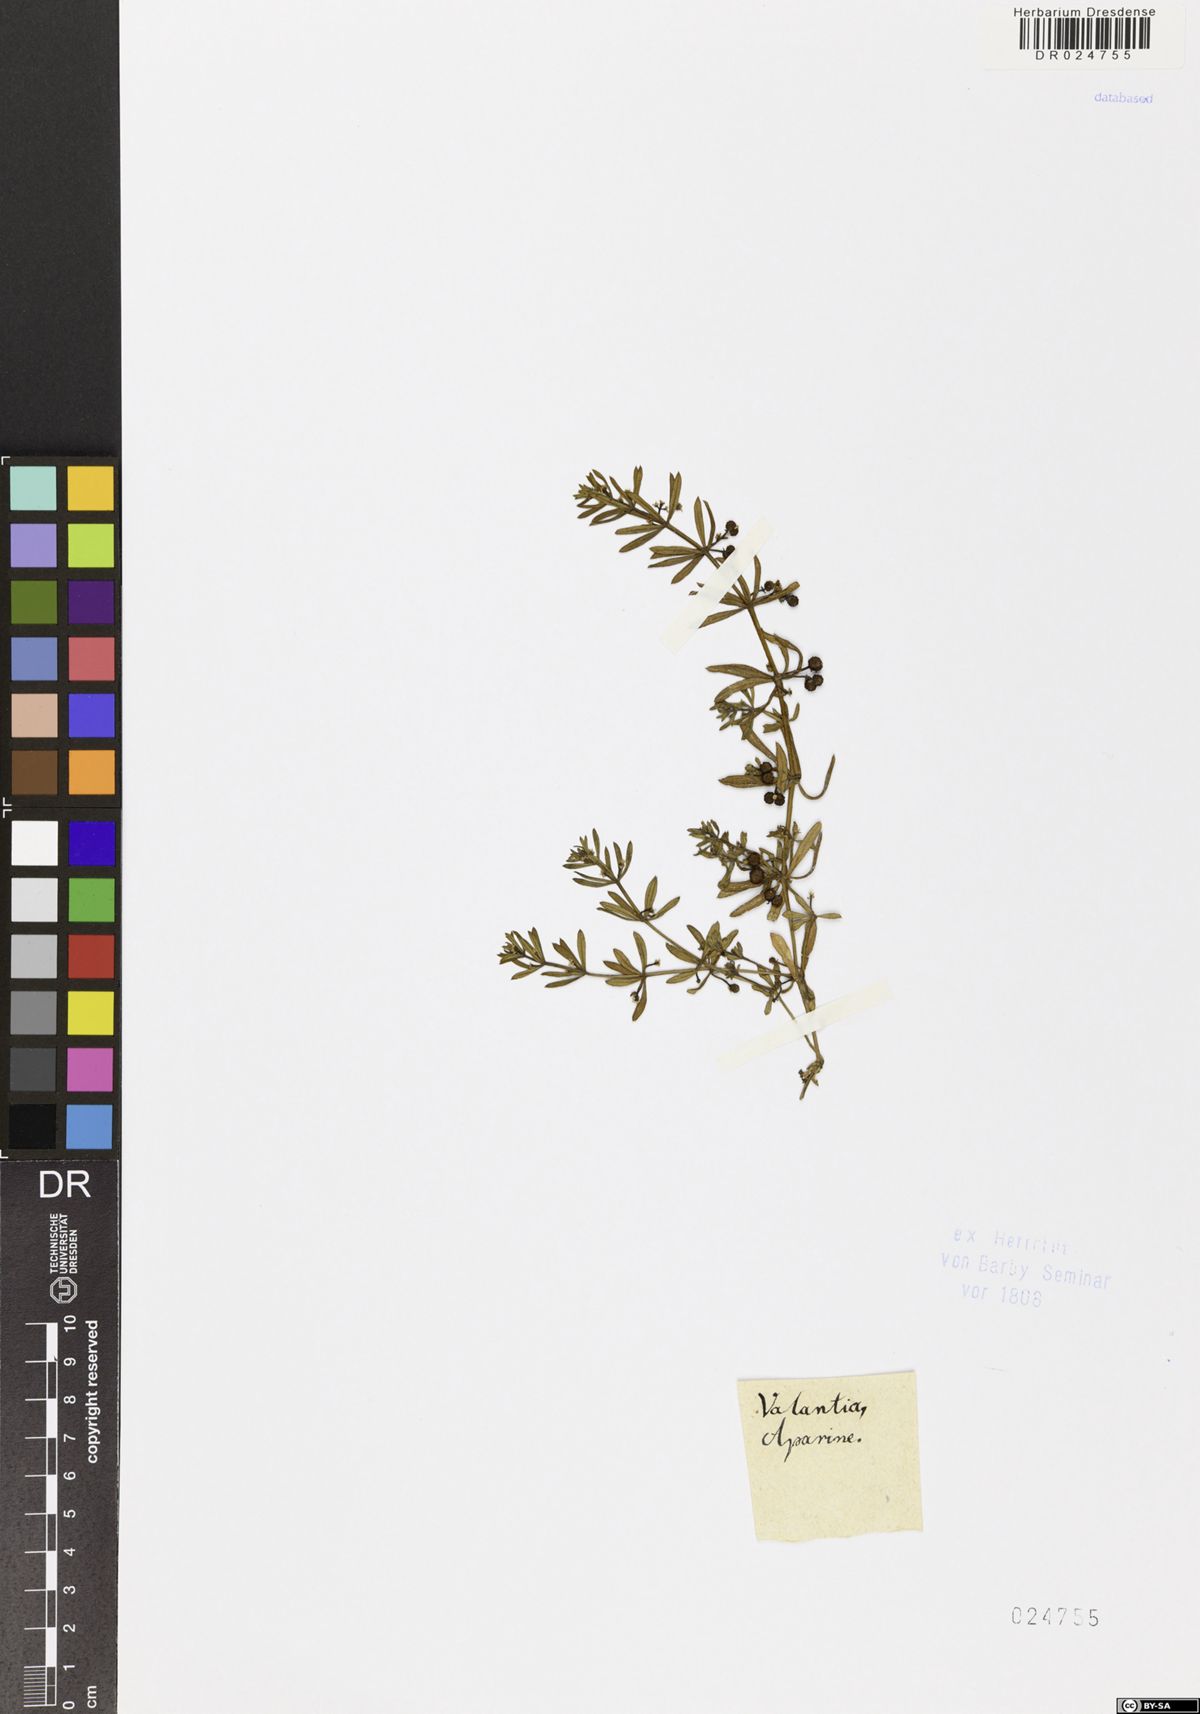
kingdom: Plantae
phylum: Tracheophyta
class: Magnoliopsida
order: Gentianales
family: Rubiaceae
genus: Galium
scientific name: Galium verrucosum
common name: Warty bedstraw
